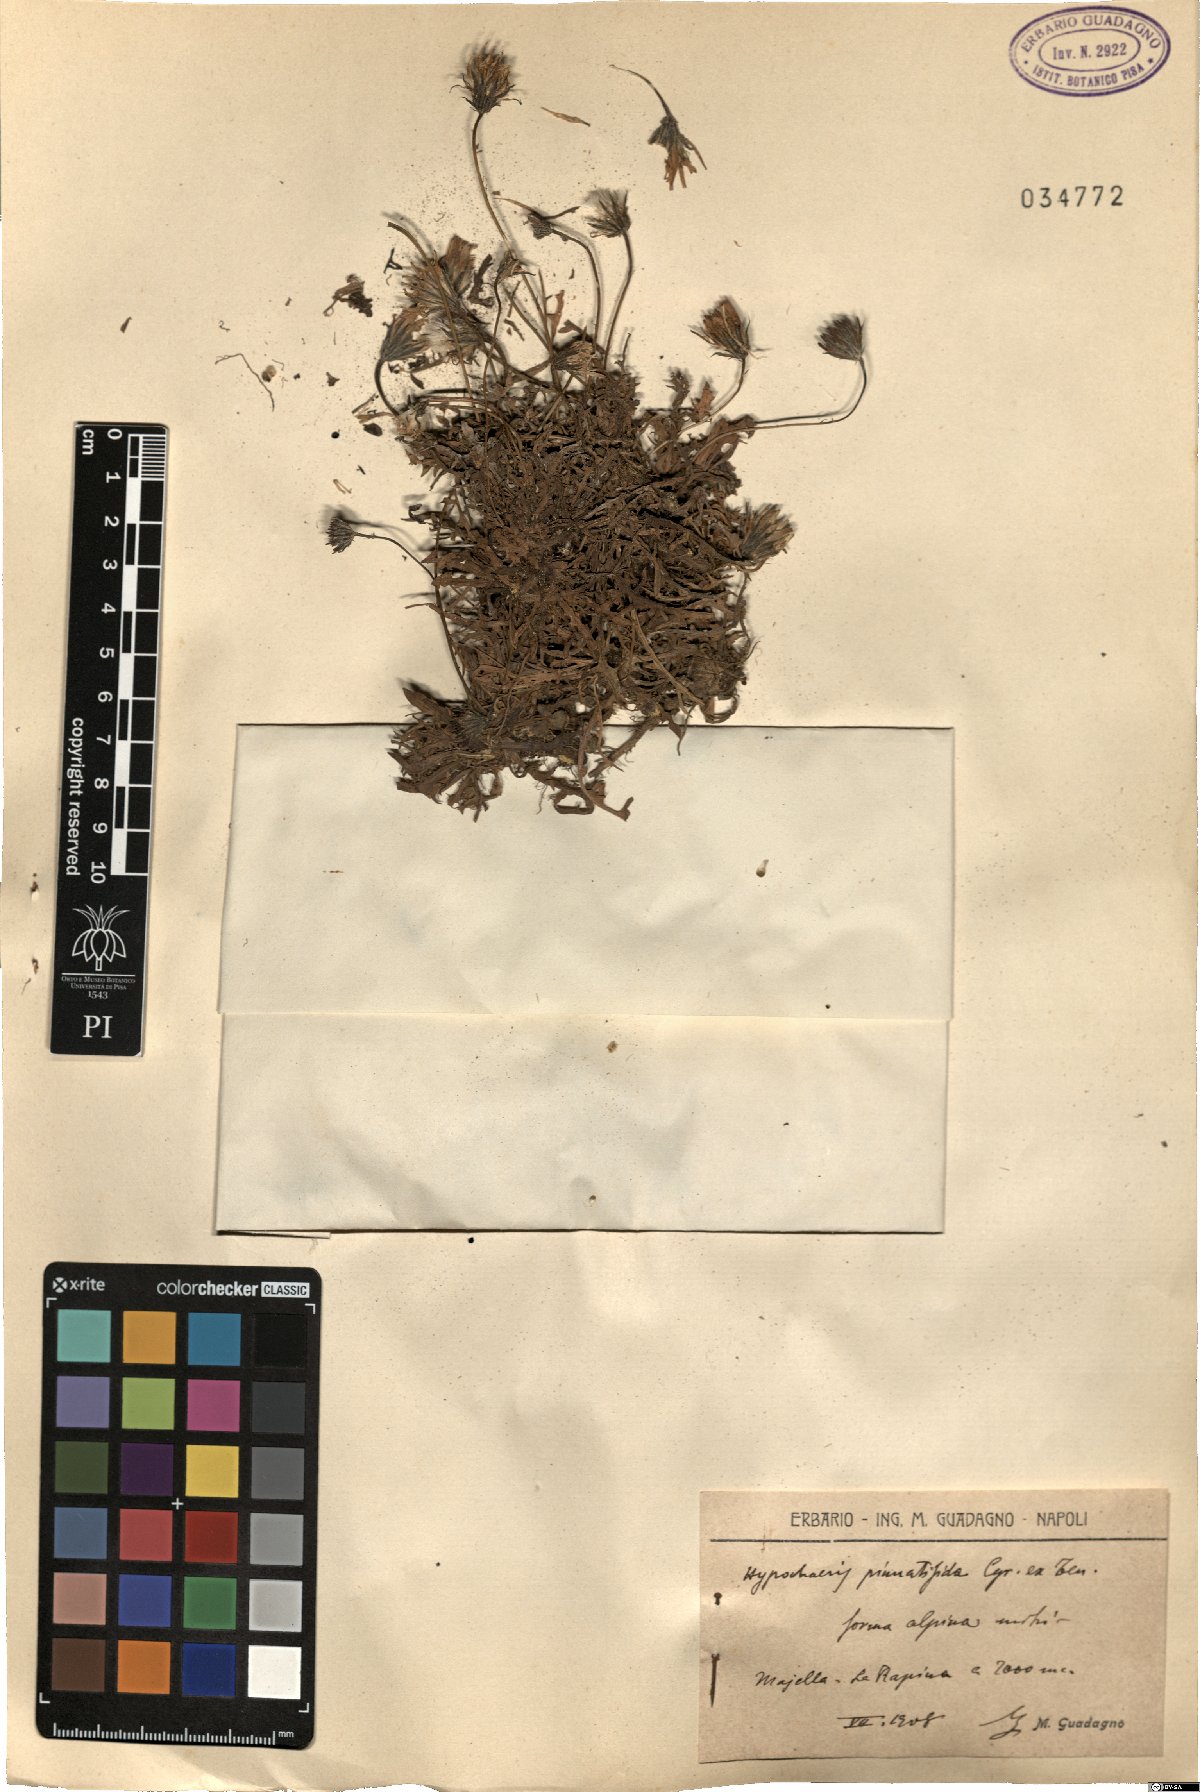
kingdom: Plantae
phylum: Tracheophyta
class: Magnoliopsida
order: Asterales
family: Asteraceae
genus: Hypochaeris
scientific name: Hypochaeris
